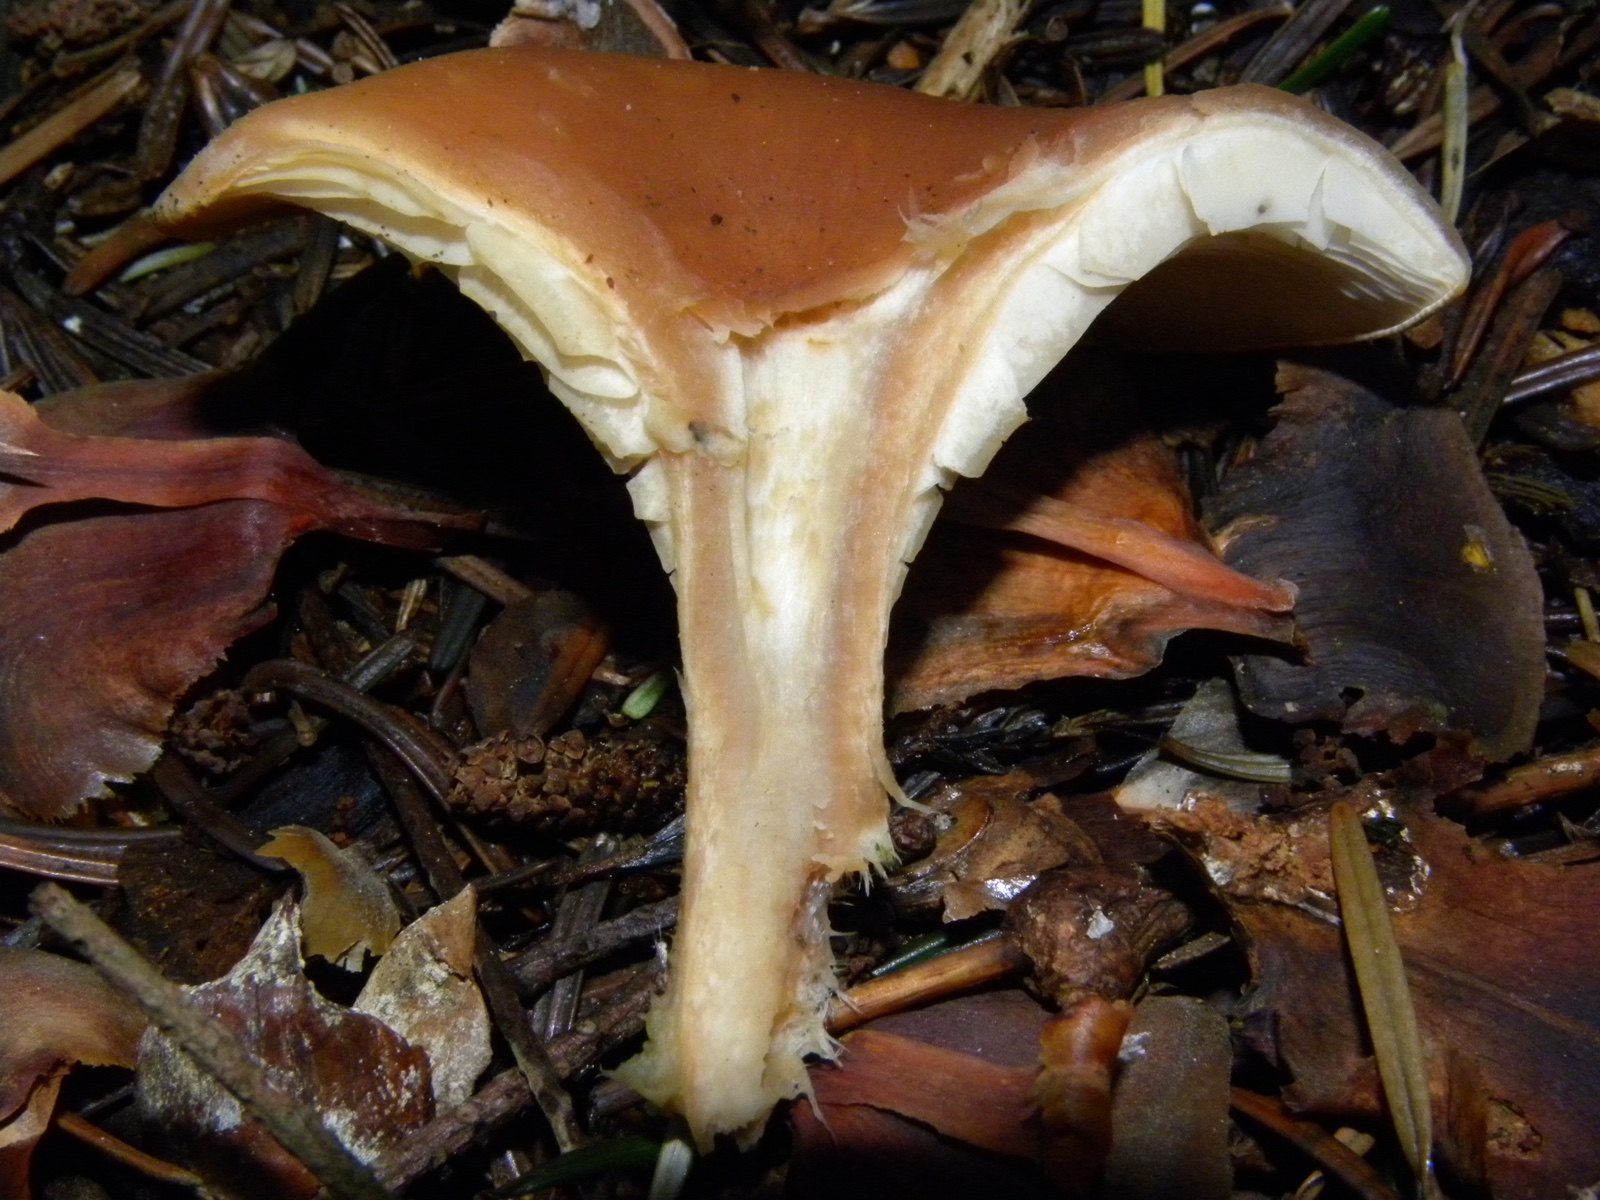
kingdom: Fungi
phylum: Basidiomycota
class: Agaricomycetes
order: Agaricales
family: Tricholomataceae
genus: Paralepista
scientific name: Paralepista flaccida
